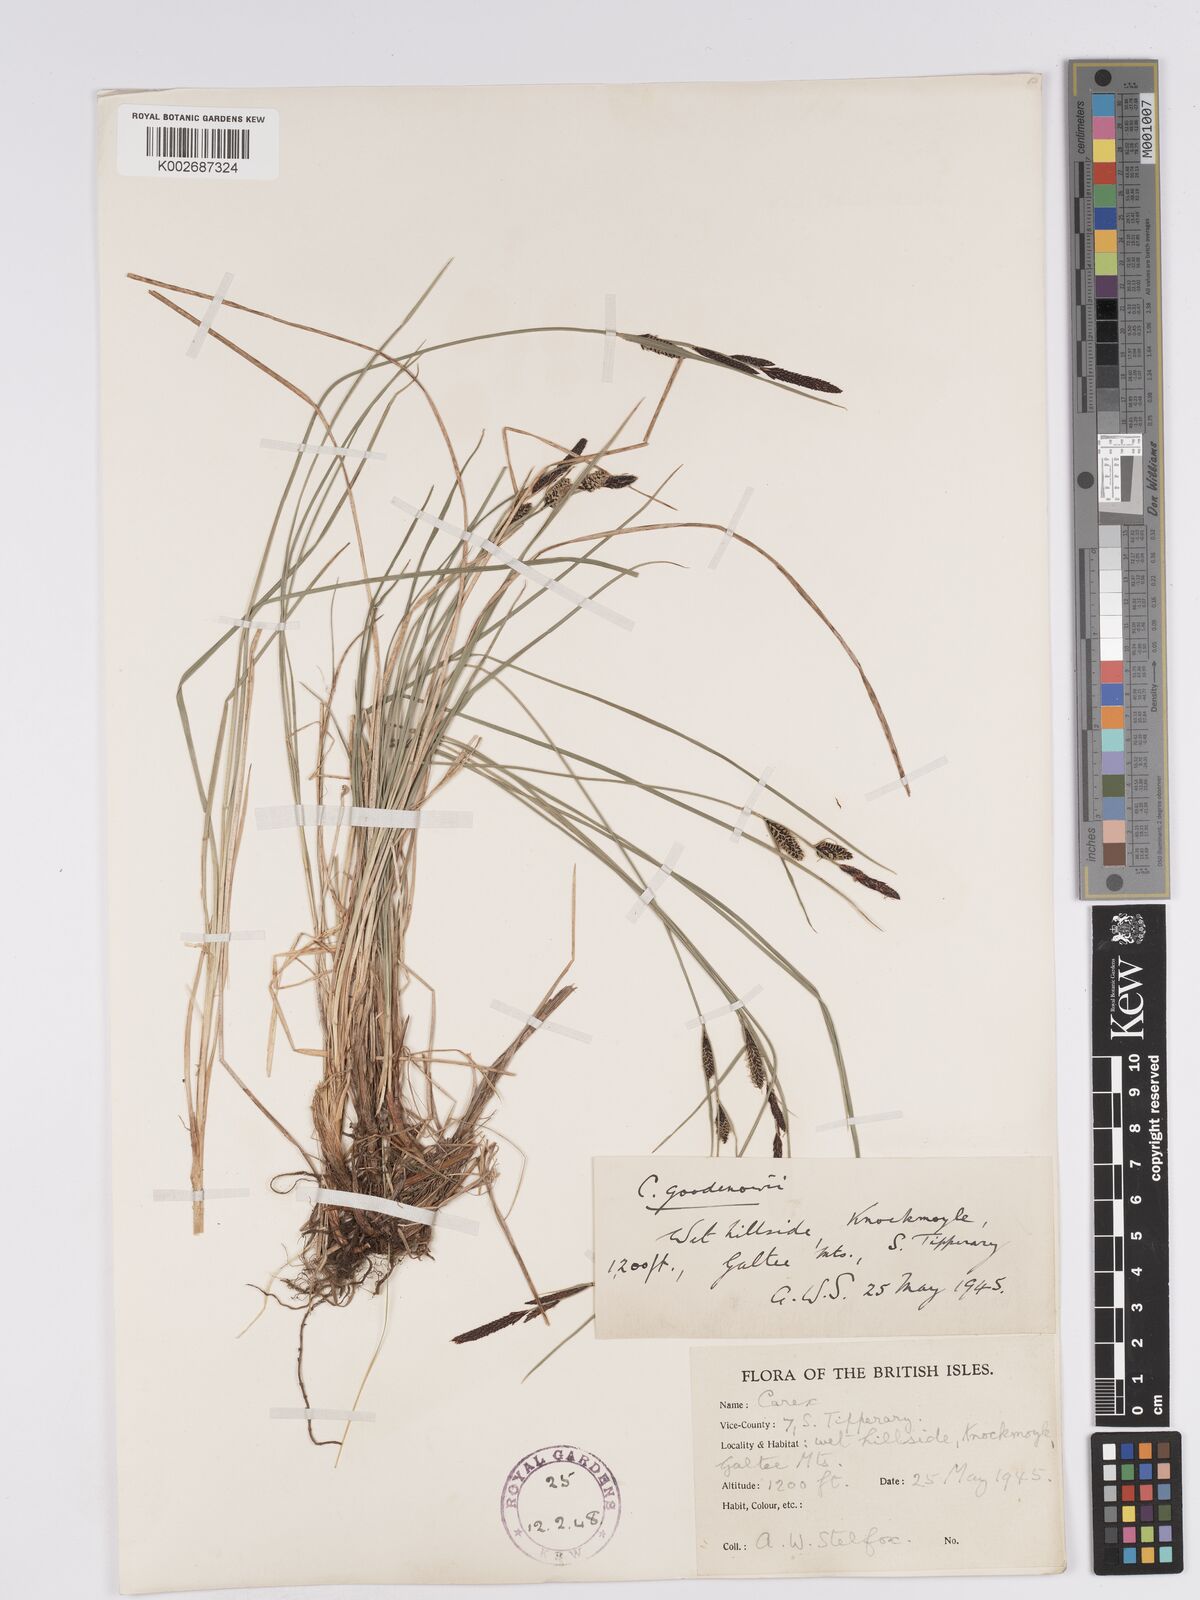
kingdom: Plantae
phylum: Tracheophyta
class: Liliopsida
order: Poales
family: Cyperaceae
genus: Carex
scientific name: Carex nigra
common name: Common sedge
